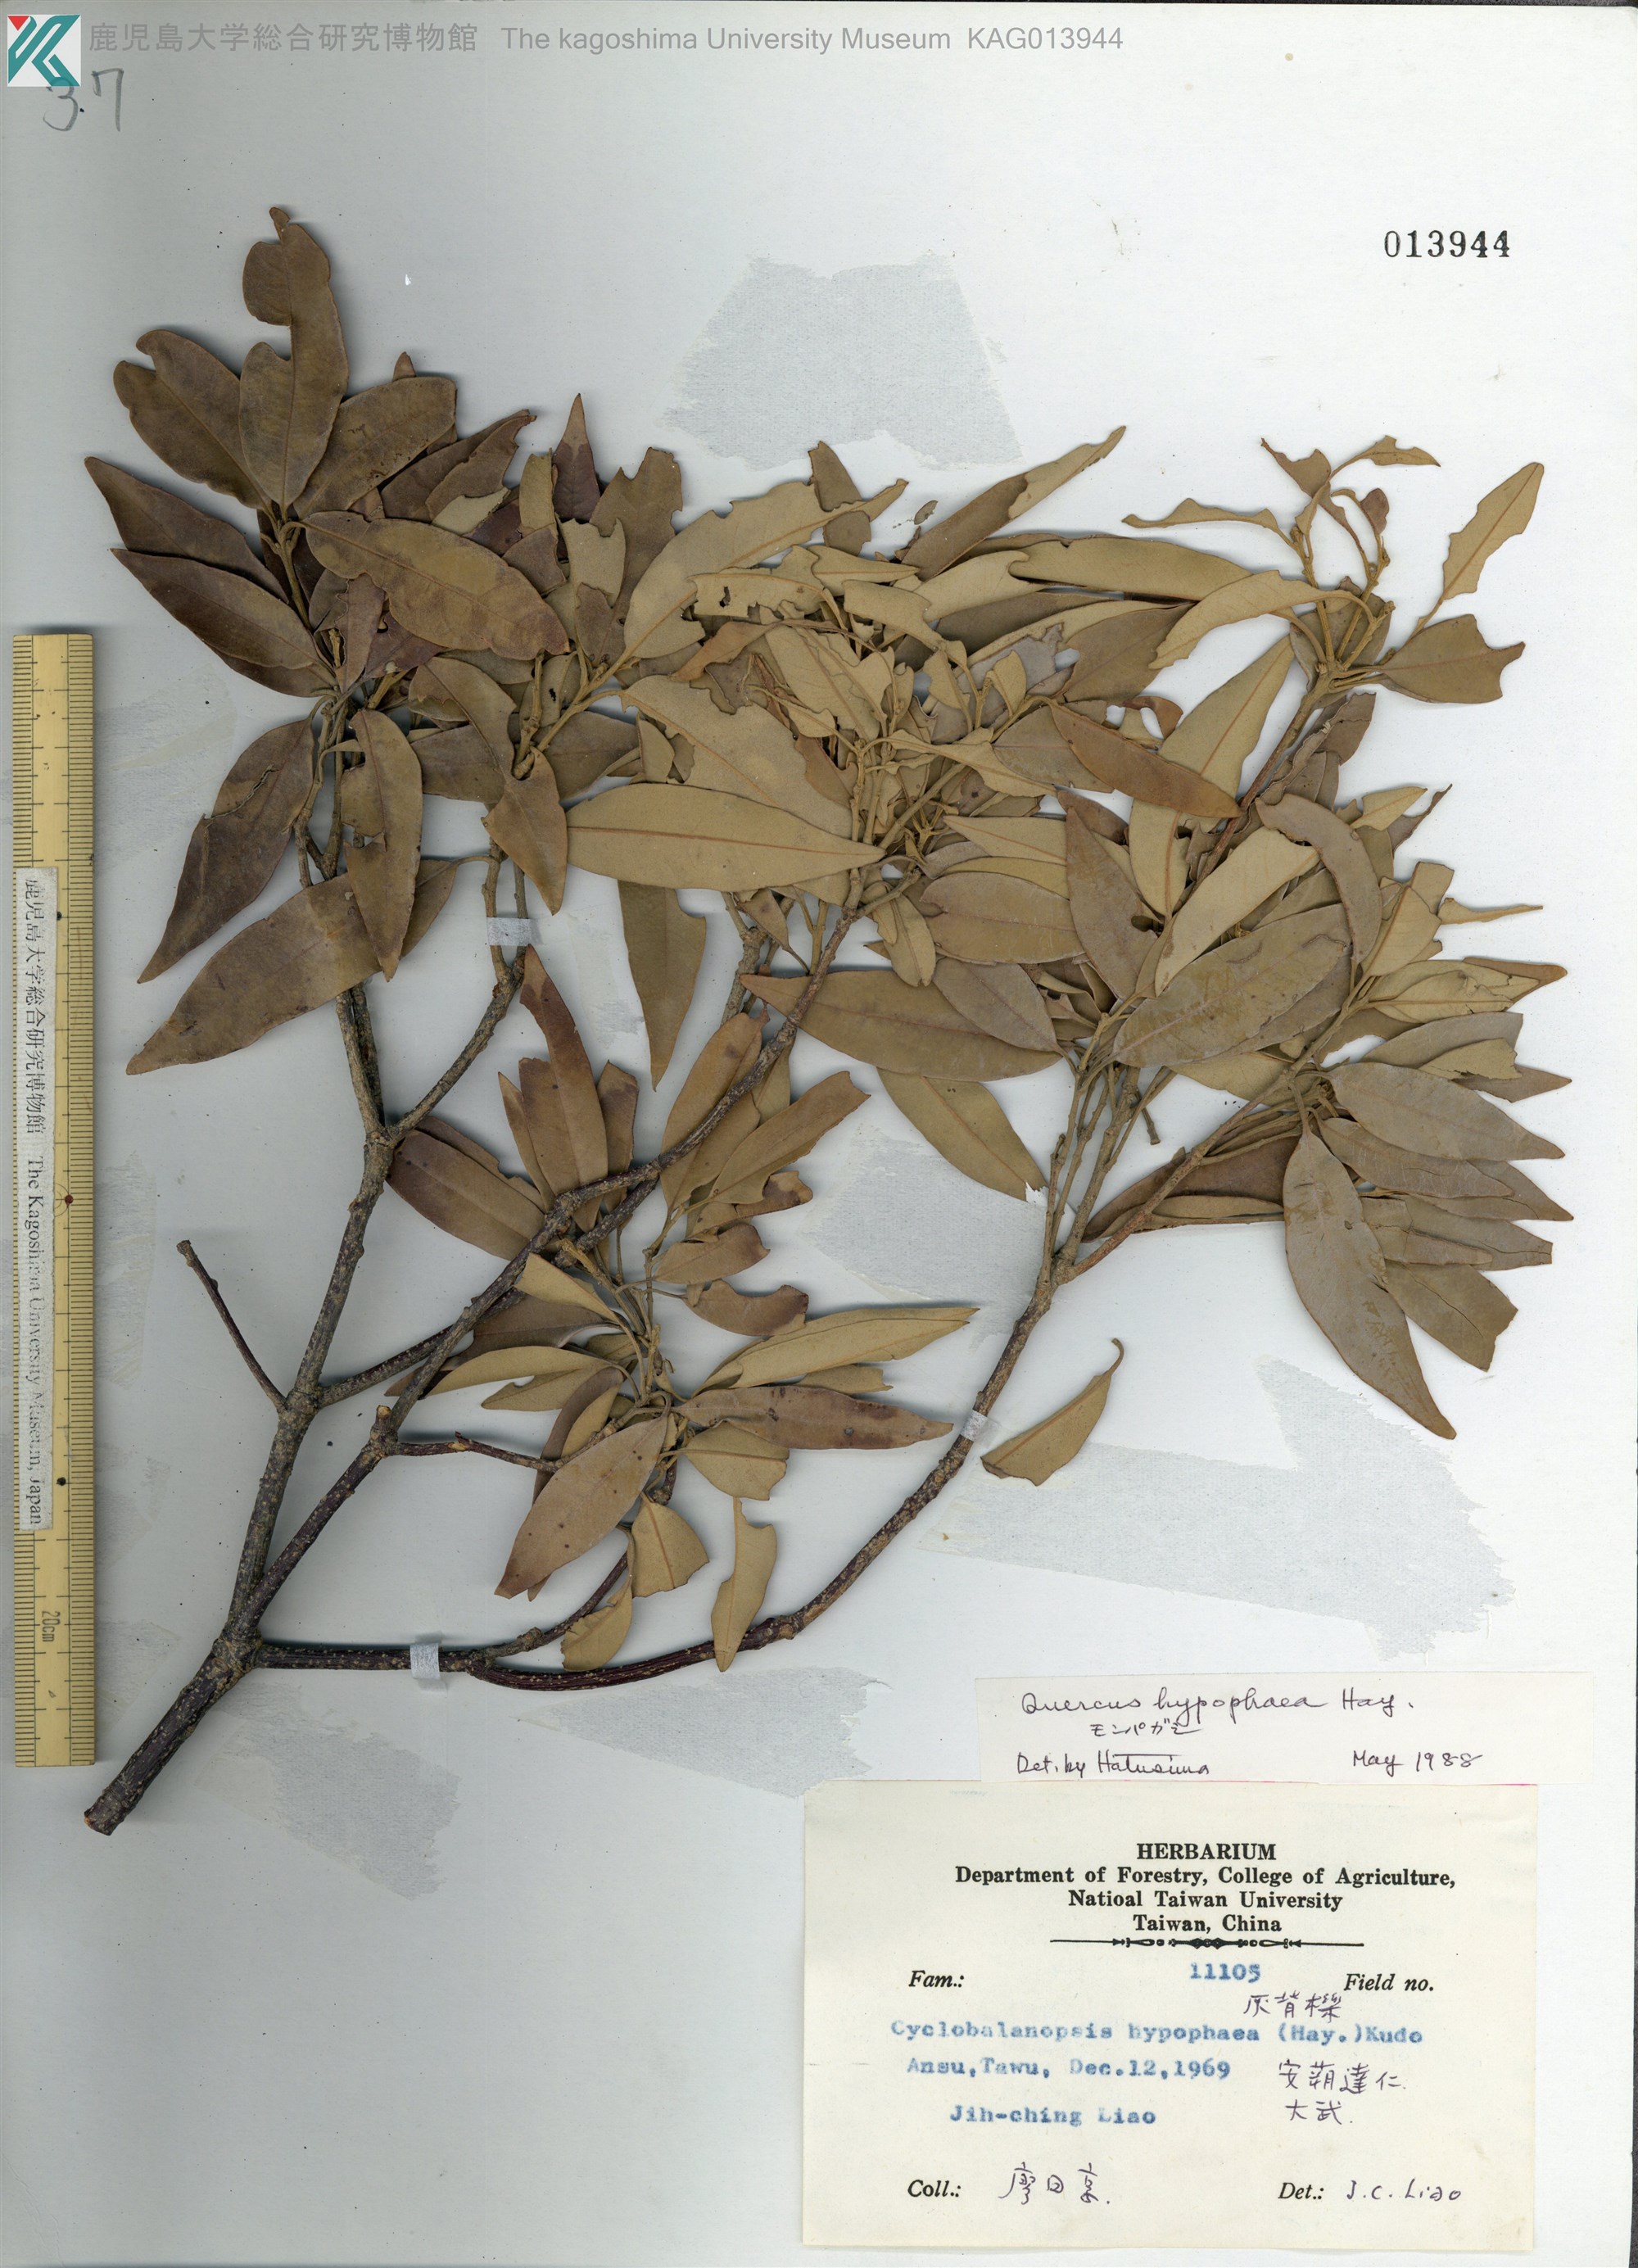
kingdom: Plantae
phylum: Tracheophyta
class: Magnoliopsida
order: Fagales
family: Fagaceae
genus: Quercus
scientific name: Quercus
